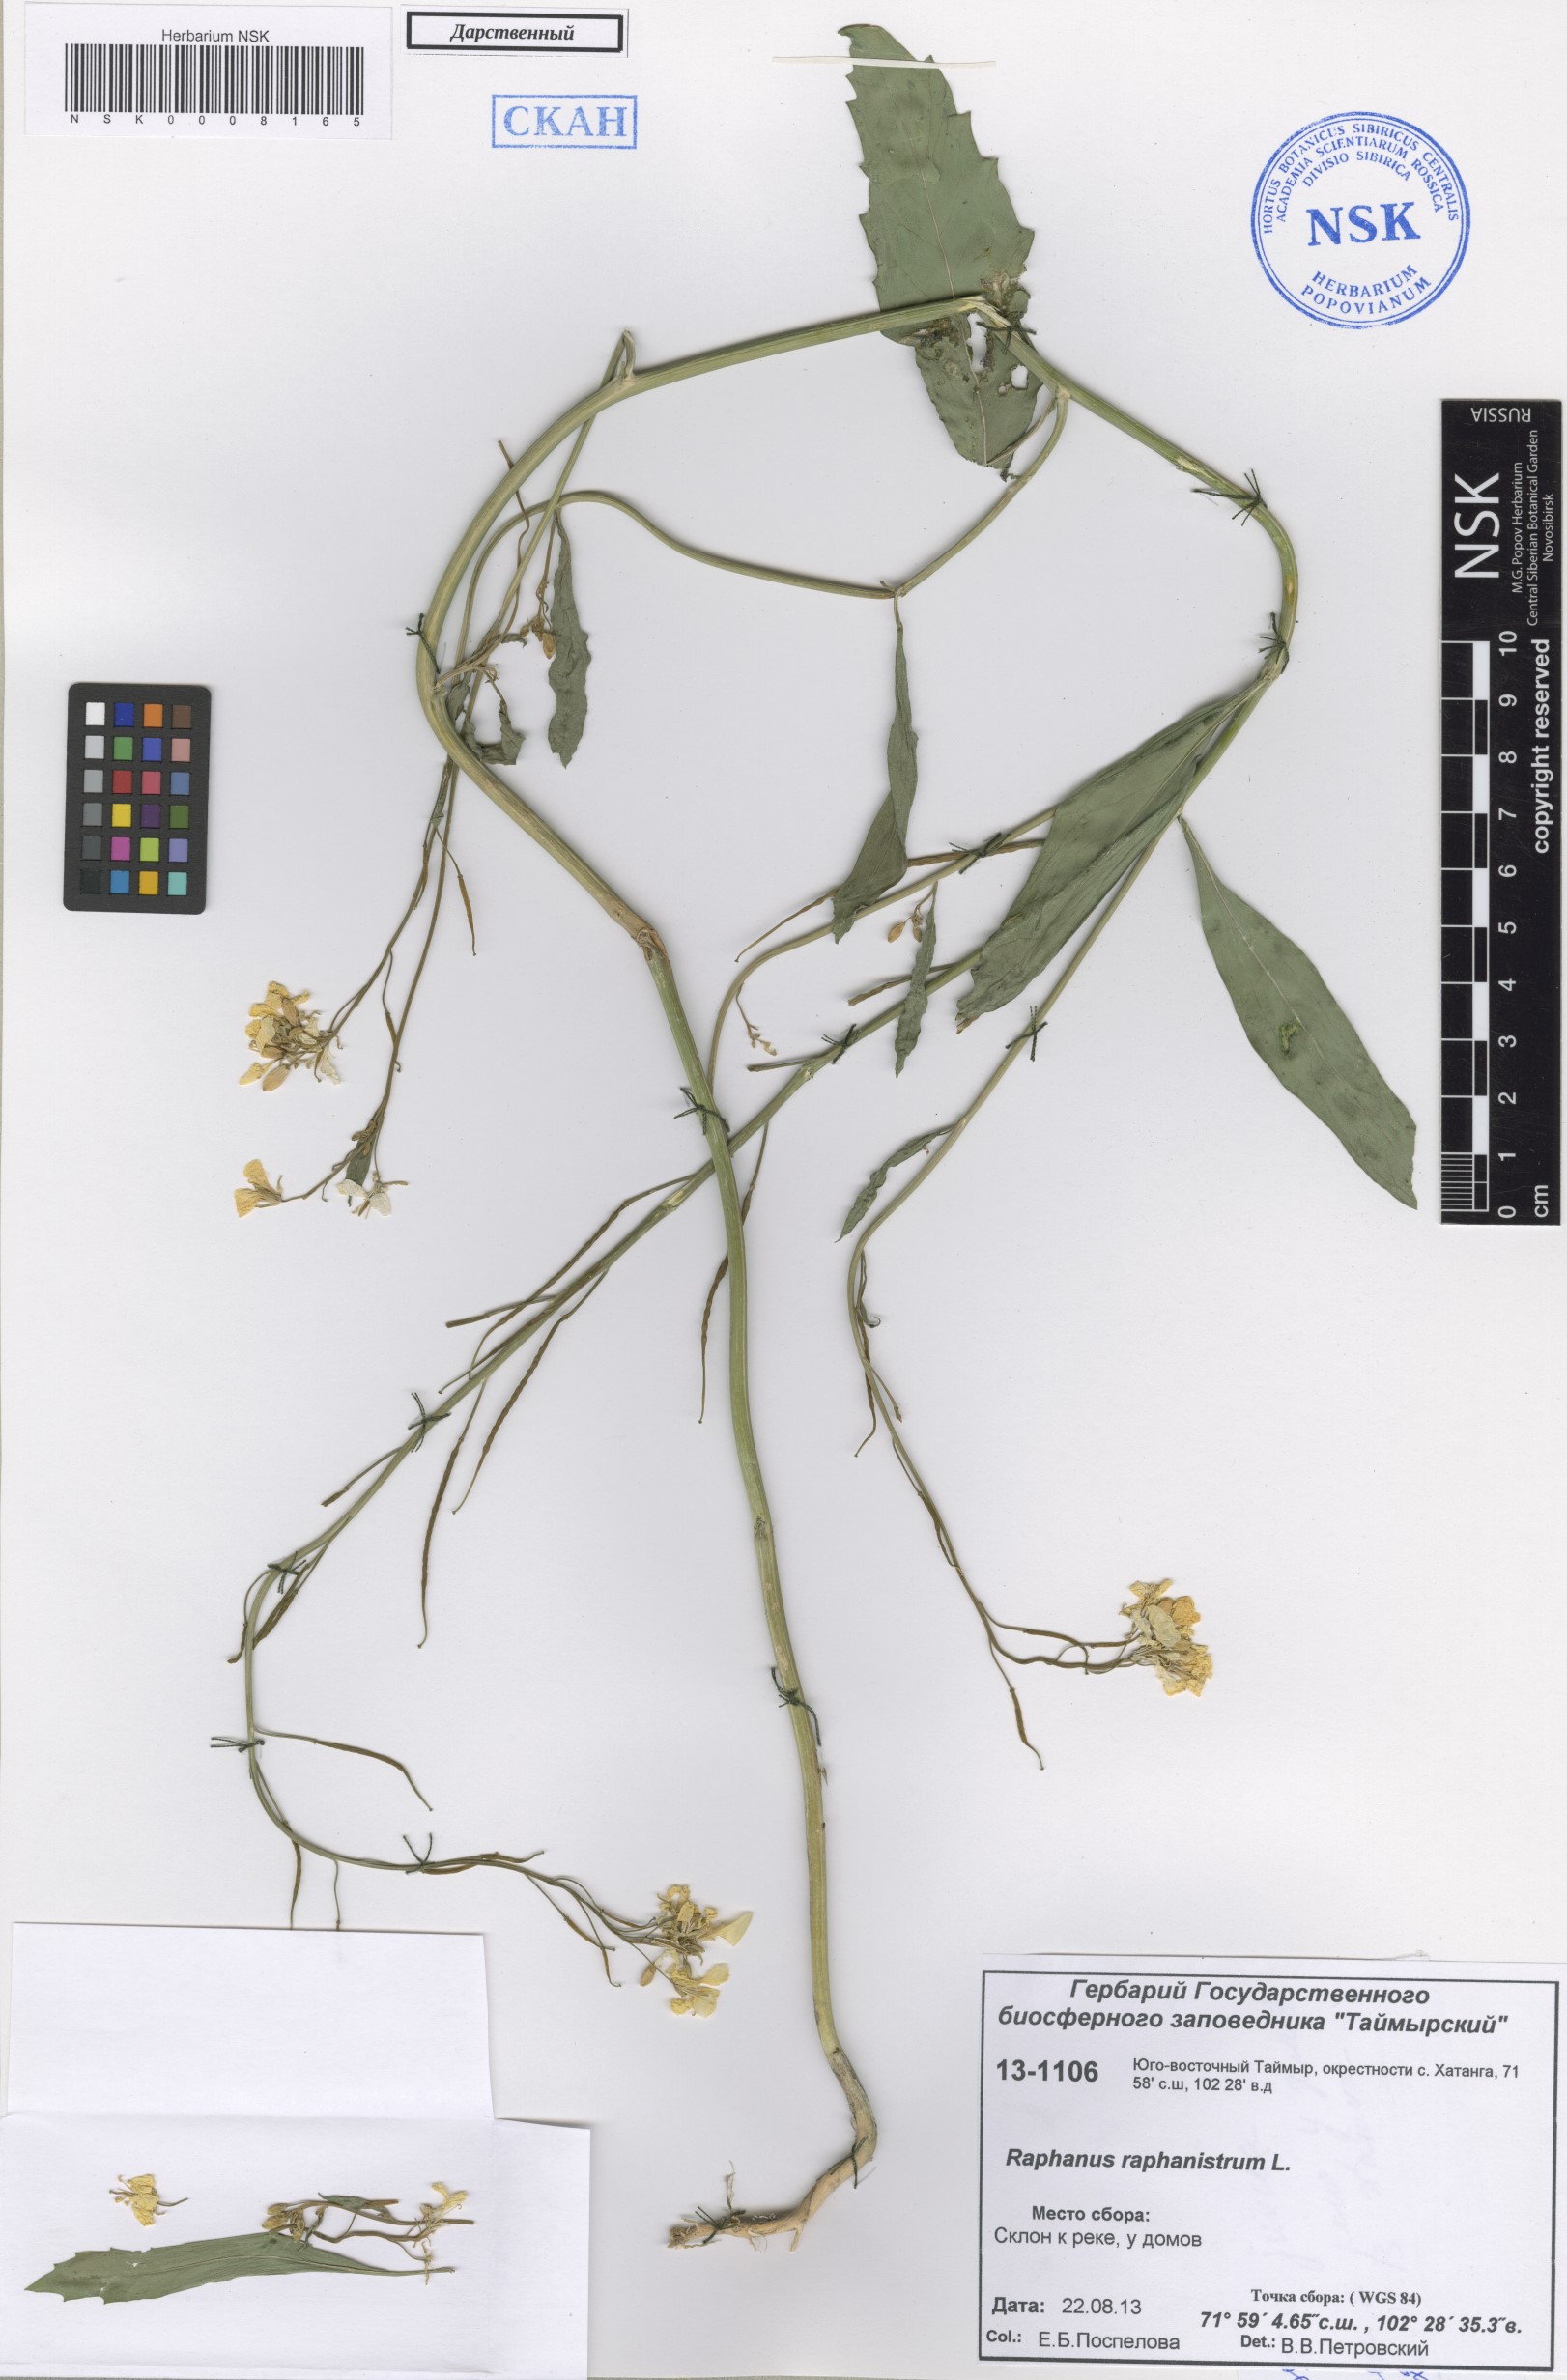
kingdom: Plantae
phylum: Tracheophyta
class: Magnoliopsida
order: Brassicales
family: Brassicaceae
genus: Raphanus
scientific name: Raphanus raphanistrum
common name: Wild radish
